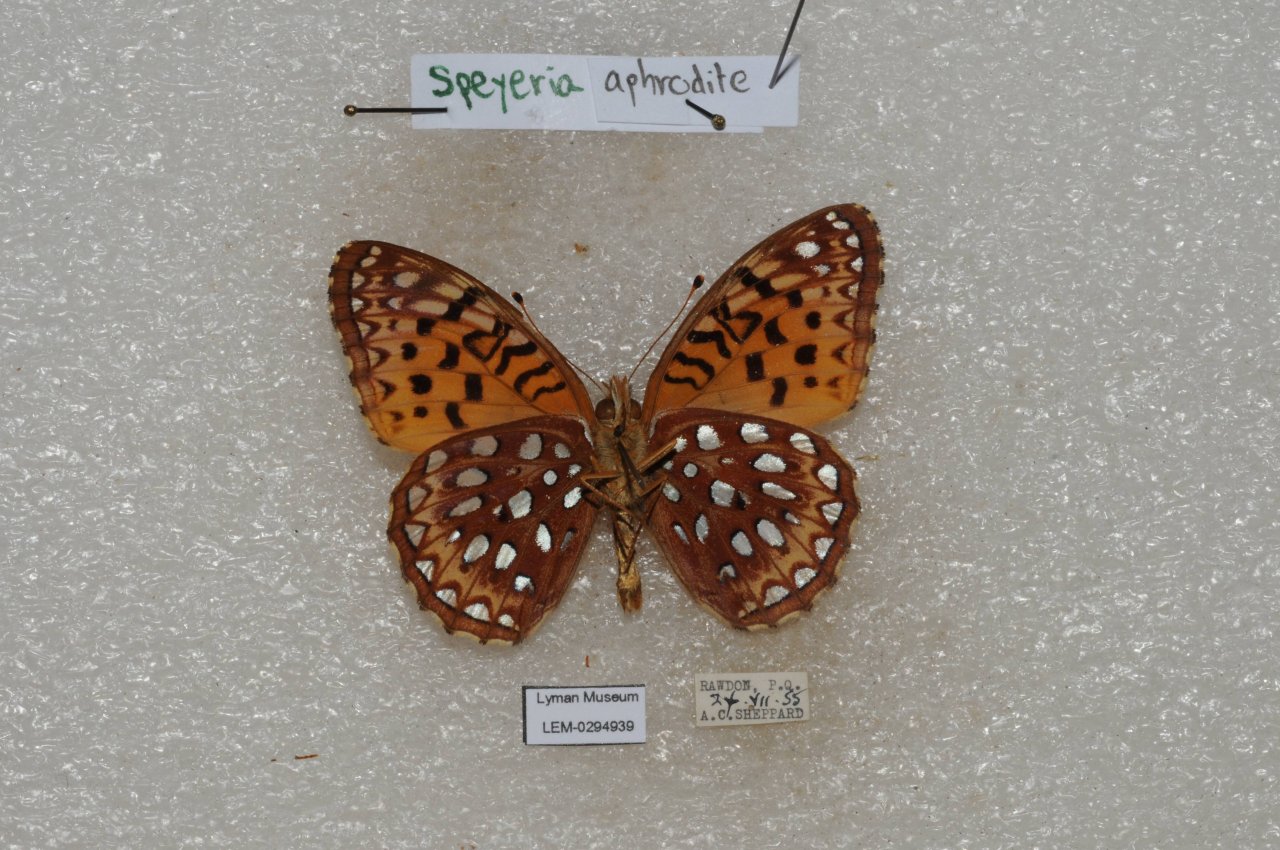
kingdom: Animalia
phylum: Arthropoda
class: Insecta
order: Lepidoptera
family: Nymphalidae
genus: Speyeria
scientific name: Speyeria aphrodite
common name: Aphrodite Fritillary
